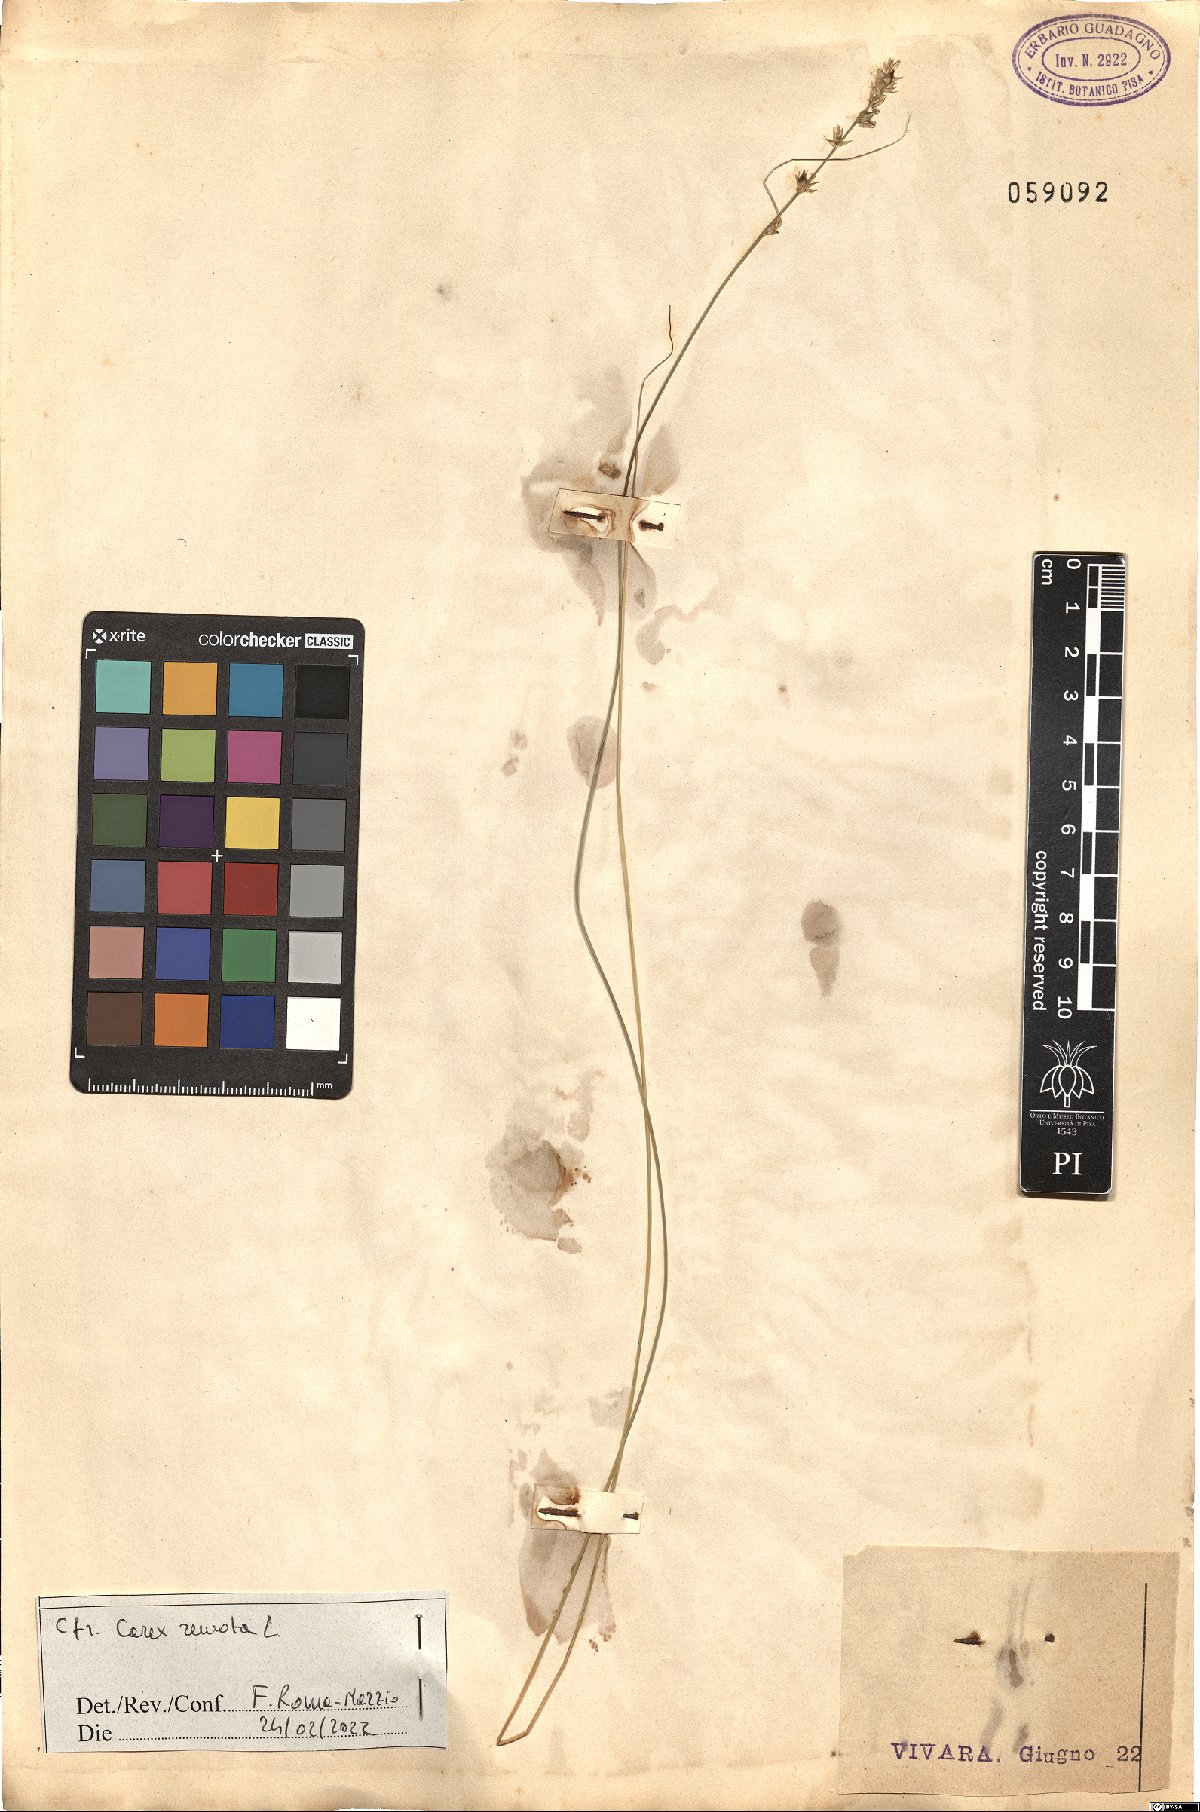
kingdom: Plantae
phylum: Tracheophyta
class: Liliopsida
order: Poales
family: Cyperaceae
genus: Carex
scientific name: Carex remota
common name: Remote sedge
